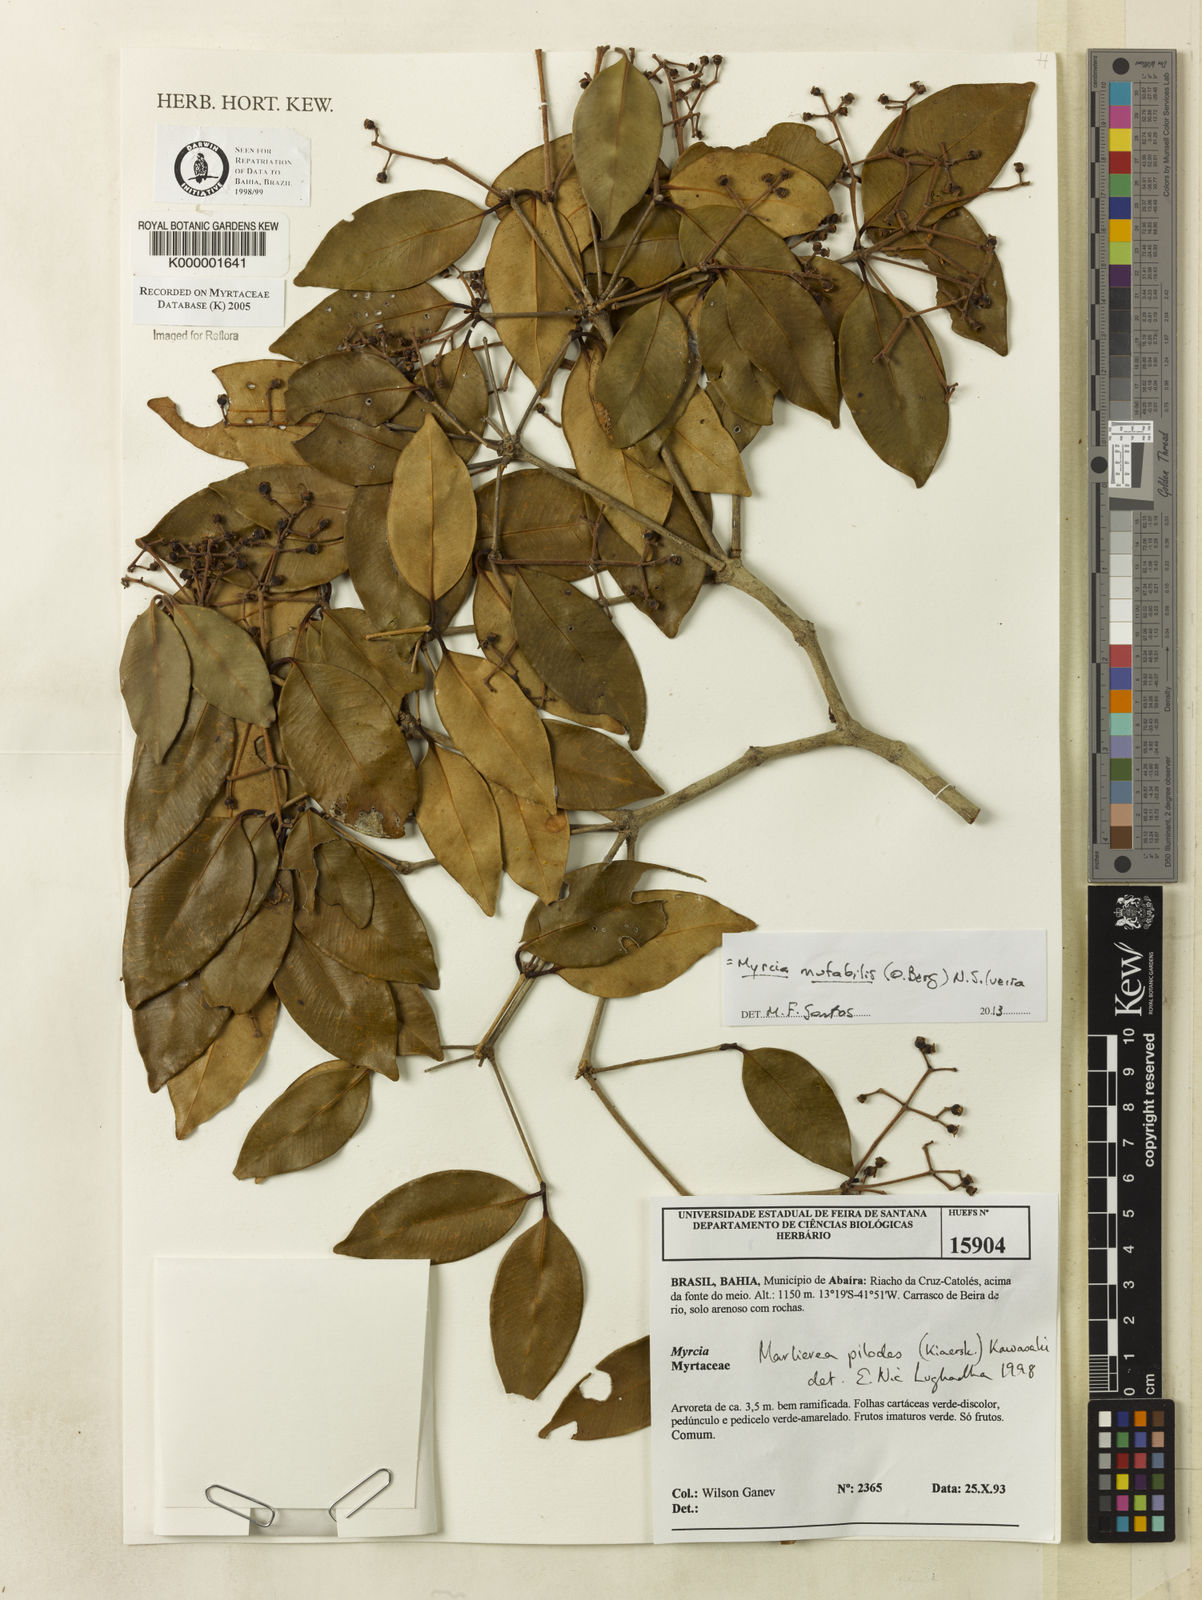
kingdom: Plantae
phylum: Tracheophyta
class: Magnoliopsida
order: Myrtales
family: Myrtaceae
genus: Myrcia
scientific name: Myrcia mutabilis
